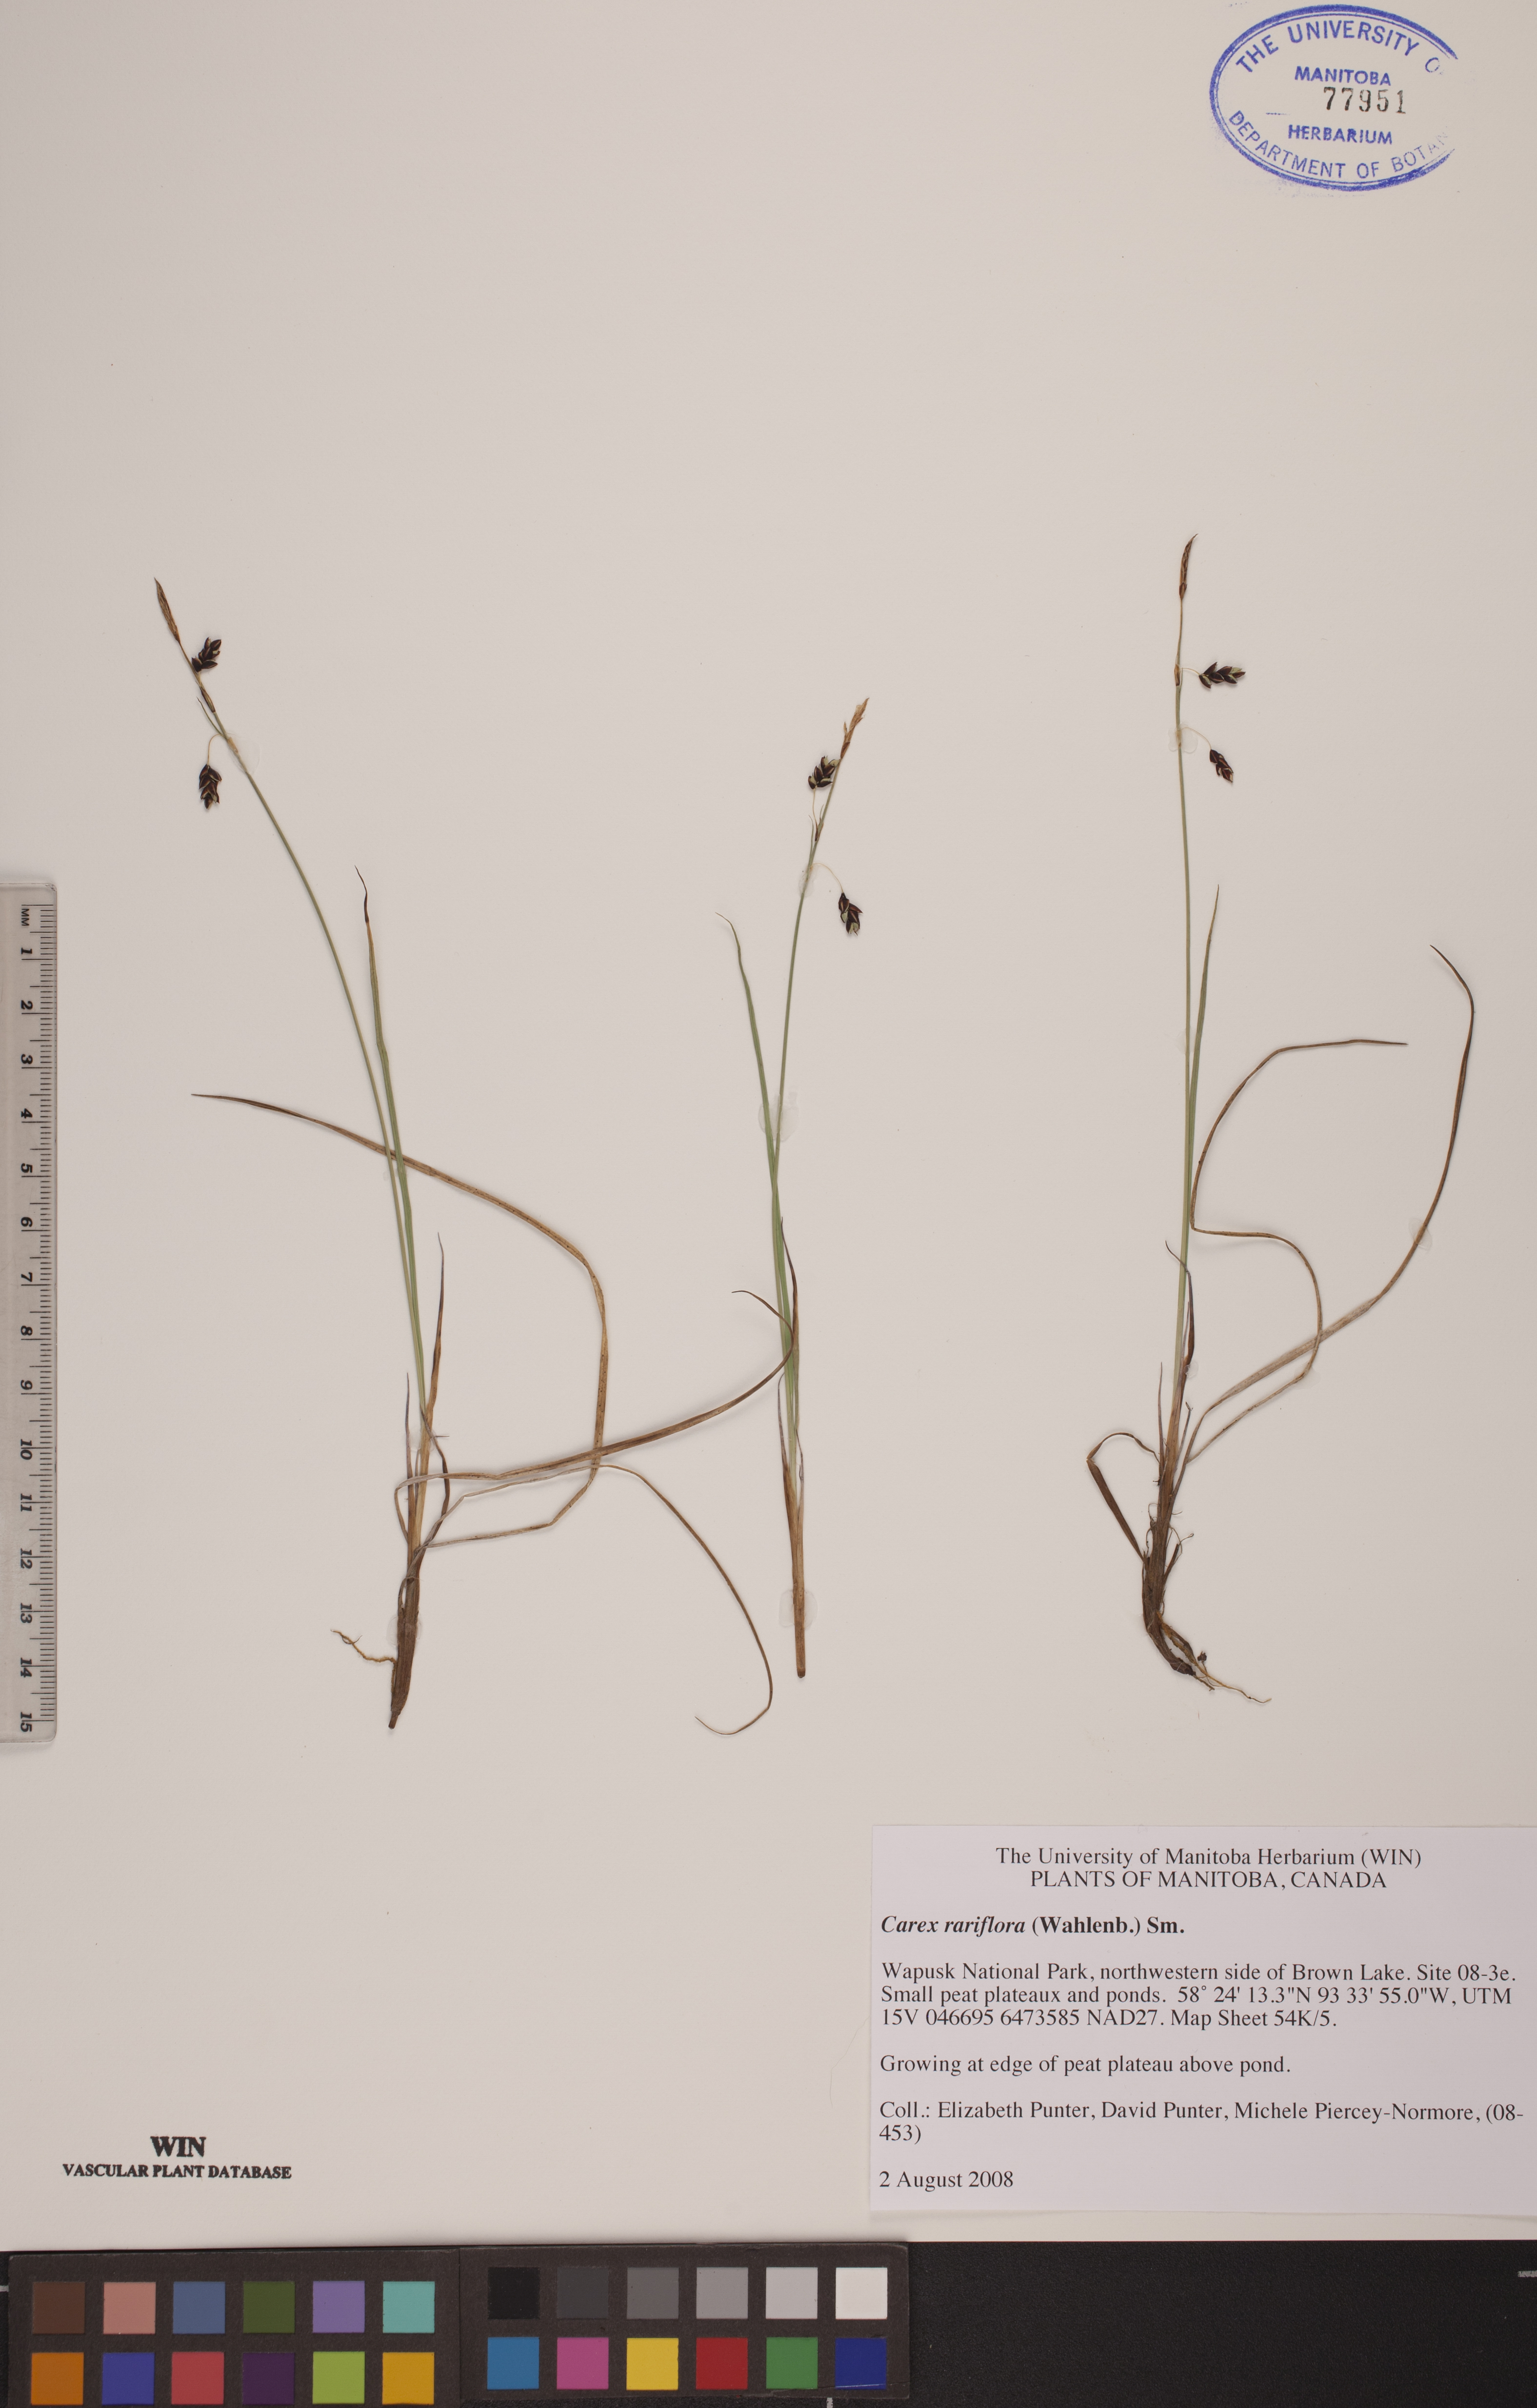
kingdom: Plantae
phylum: Tracheophyta
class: Liliopsida
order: Poales
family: Cyperaceae
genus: Carex
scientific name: Carex rariflora
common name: Loose-flowered alpine sedge
